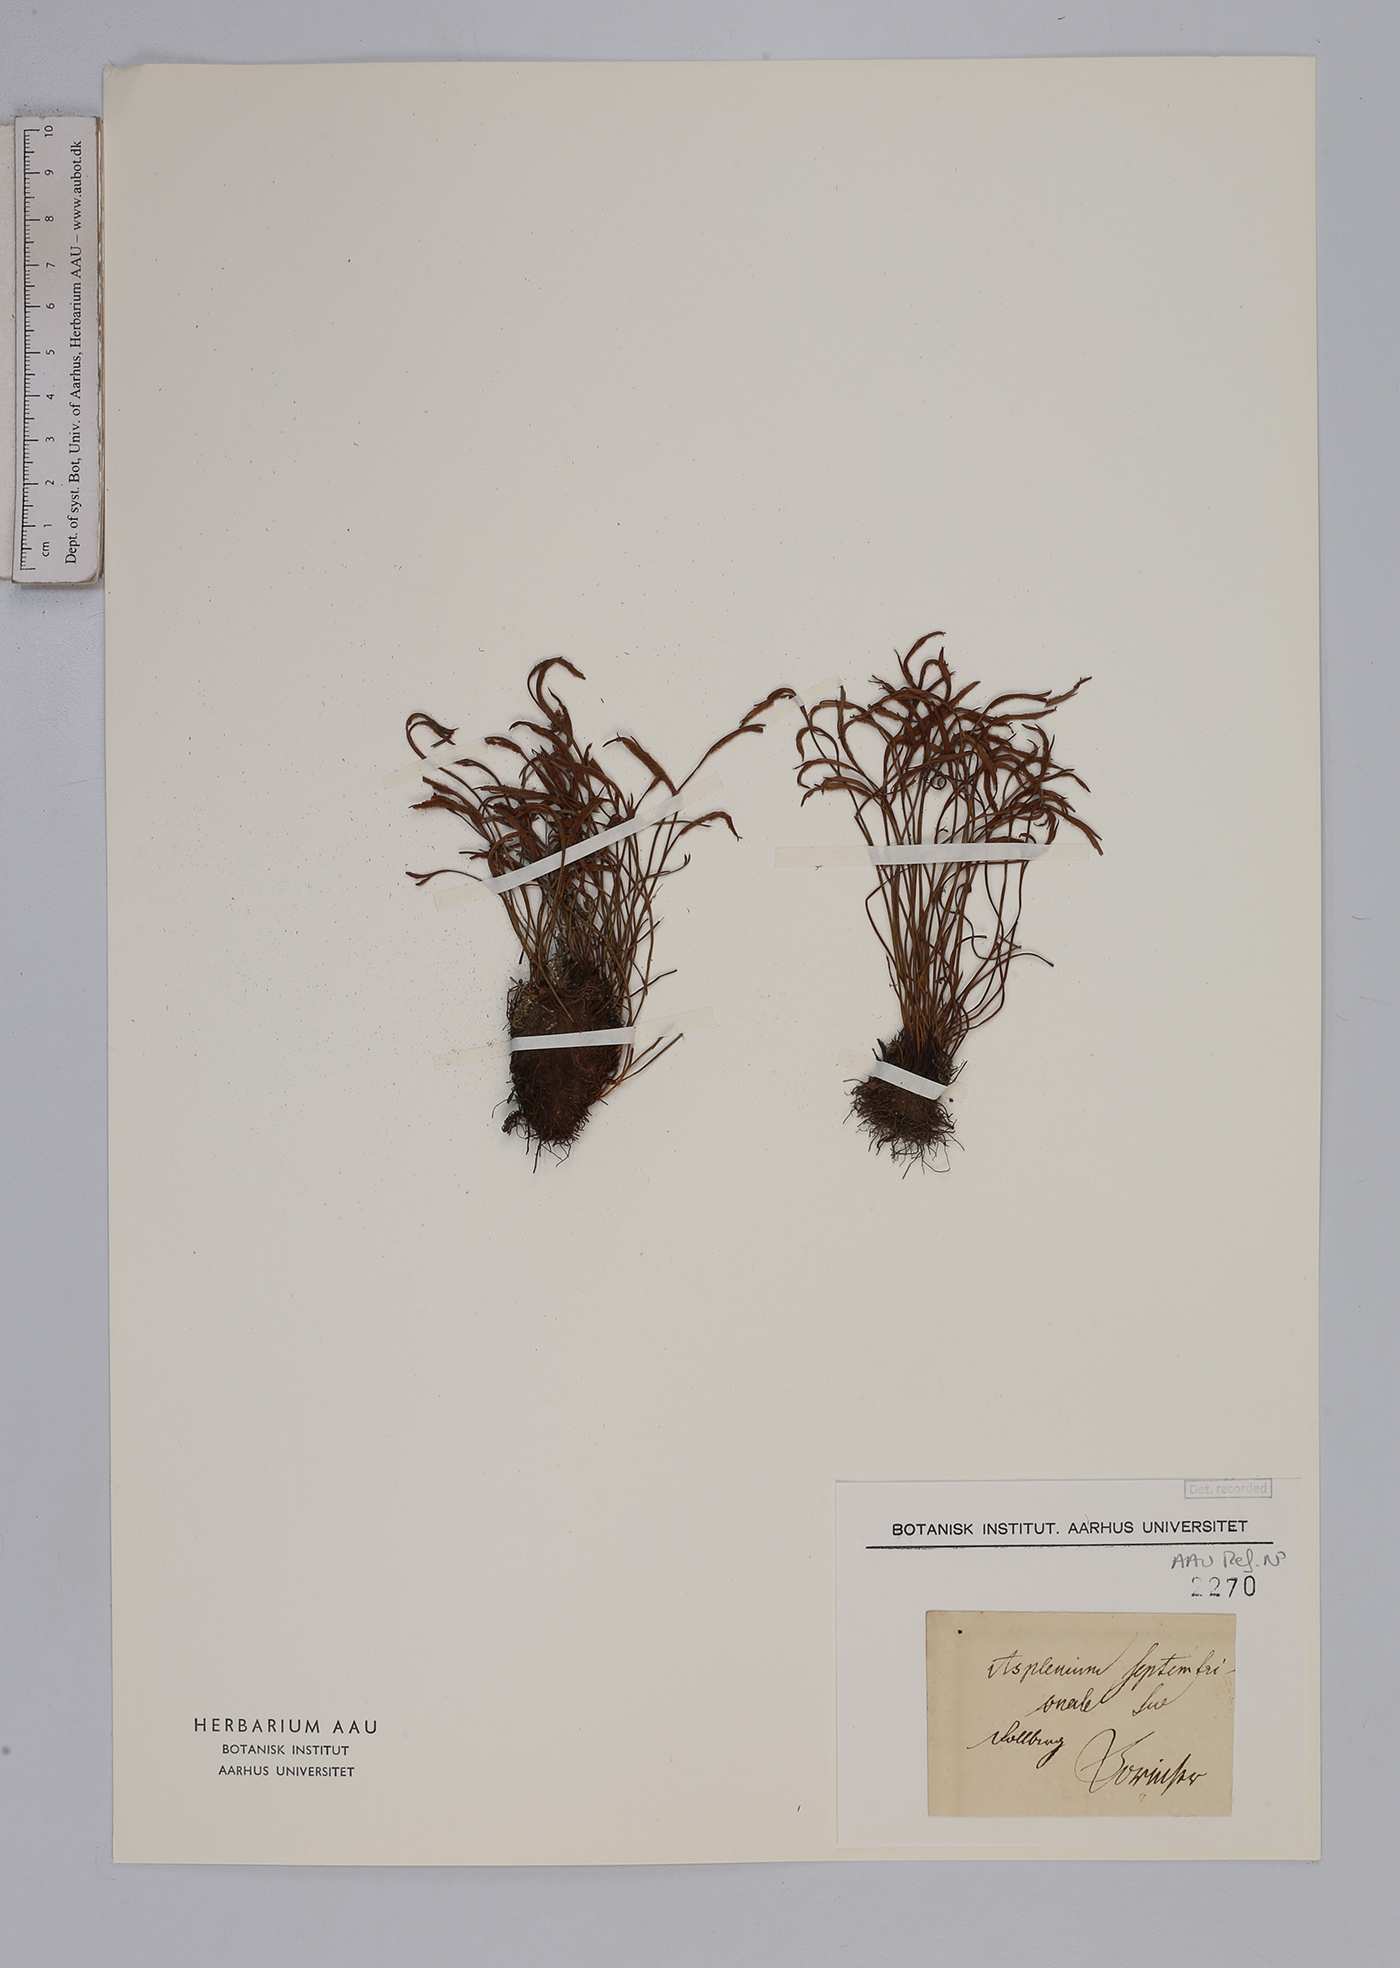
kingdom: Plantae
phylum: Tracheophyta
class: Polypodiopsida
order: Polypodiales
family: Aspleniaceae
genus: Asplenium
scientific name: Asplenium septentrionale
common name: Forked spleenwort
